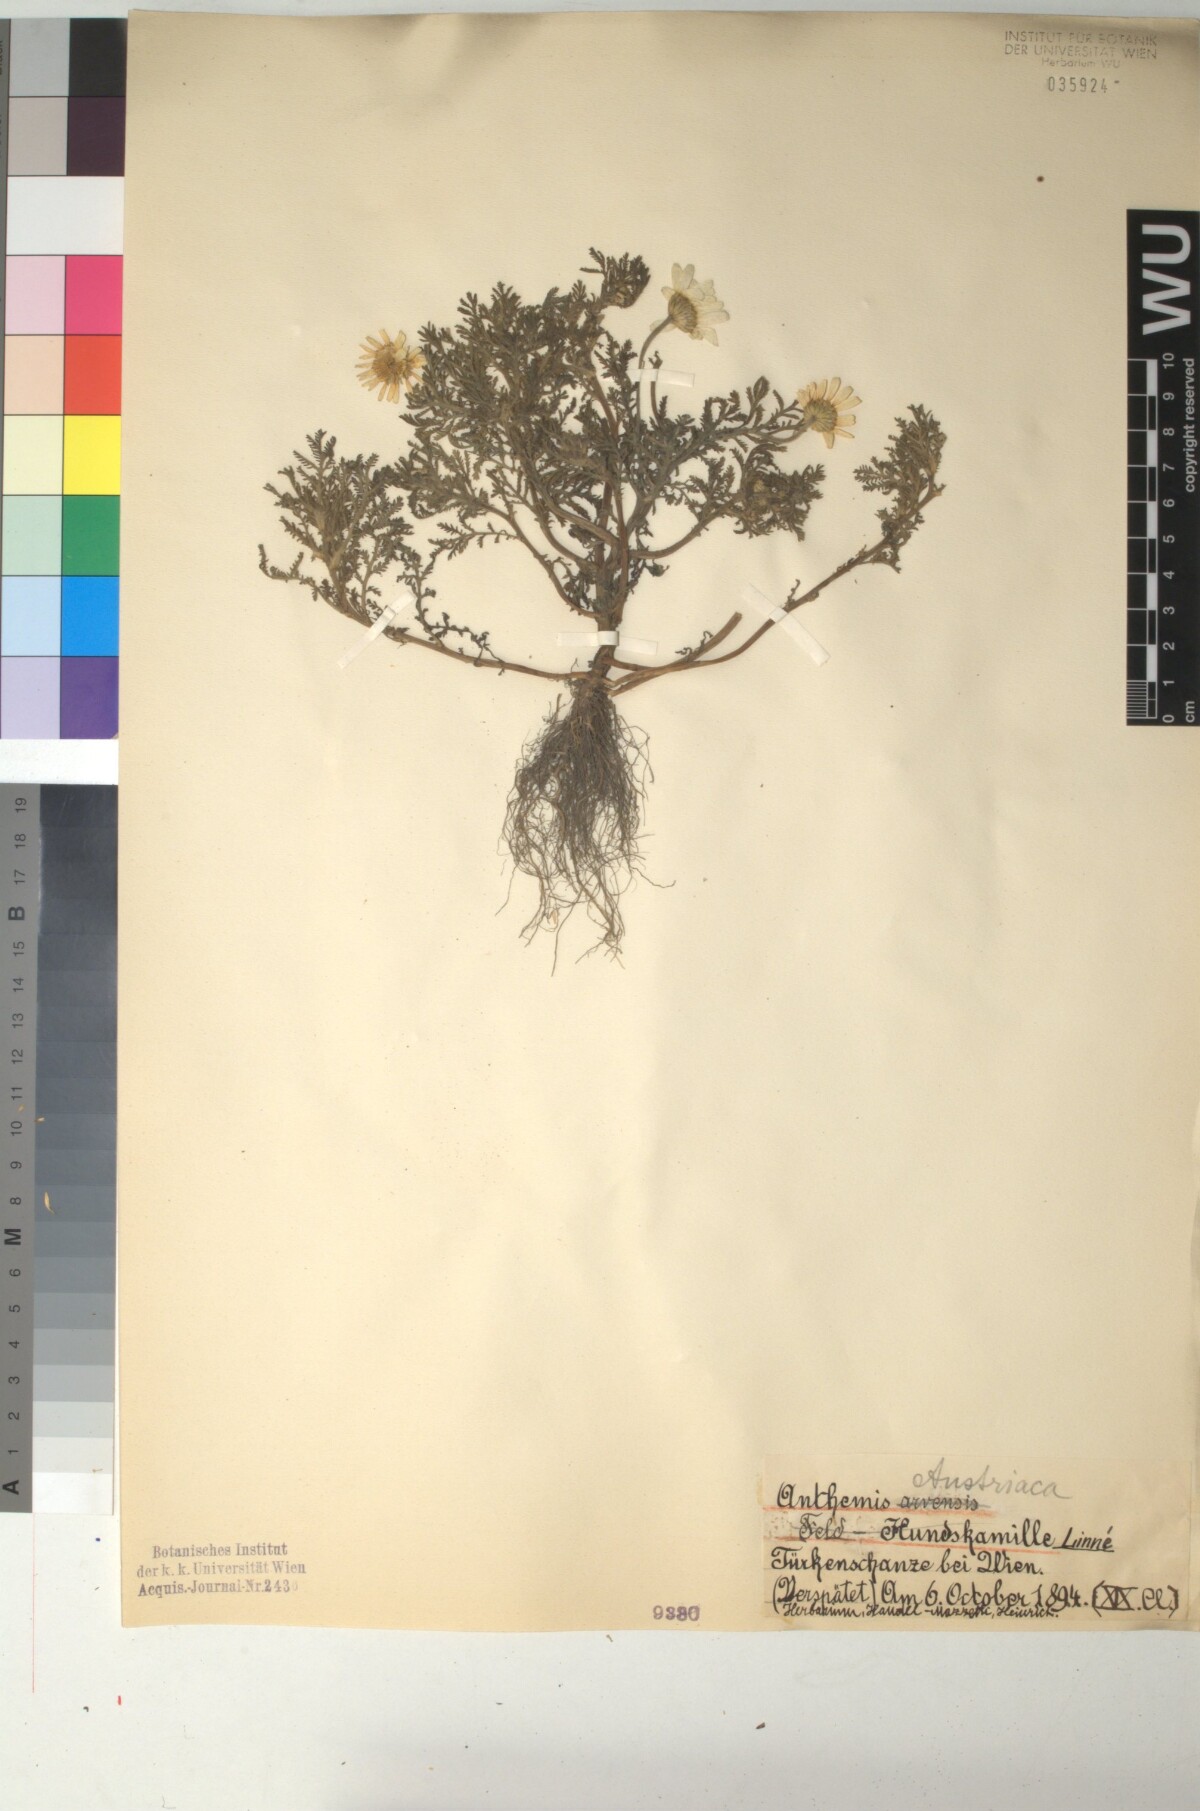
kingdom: Plantae
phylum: Tracheophyta
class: Magnoliopsida
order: Asterales
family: Asteraceae
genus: Cota
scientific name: Cota austriaca
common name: Austrian chamomile
